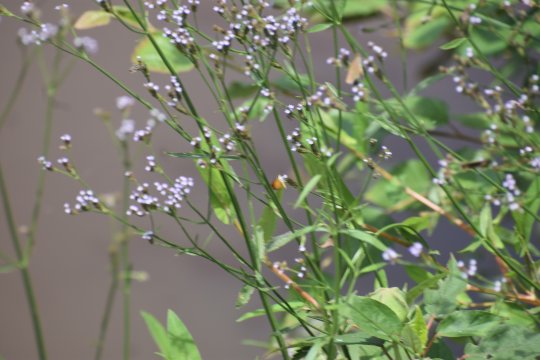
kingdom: Animalia
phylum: Arthropoda
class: Insecta
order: Lepidoptera
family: Hesperiidae
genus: Ancyloxypha
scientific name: Ancyloxypha numitor
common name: Least Skipper
